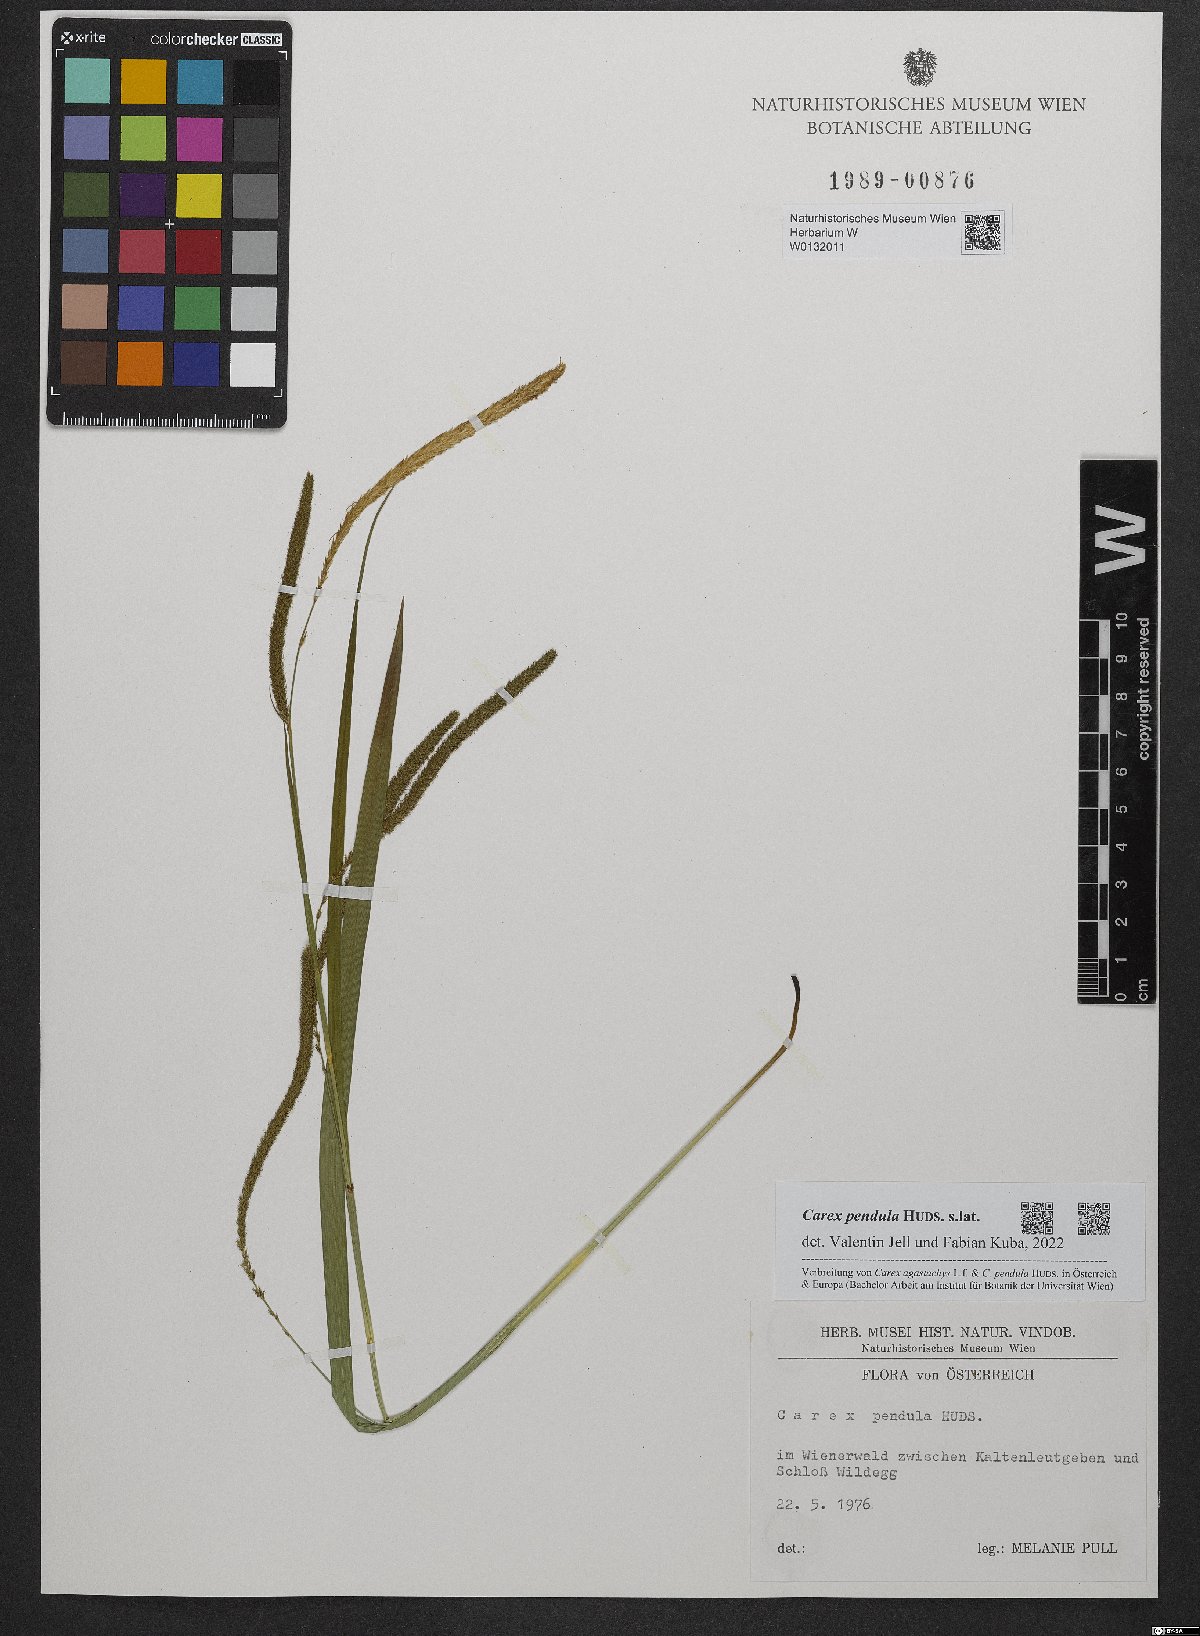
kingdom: Plantae
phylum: Tracheophyta
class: Liliopsida
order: Poales
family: Cyperaceae
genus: Carex
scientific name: Carex pendula
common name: Pendulous sedge
